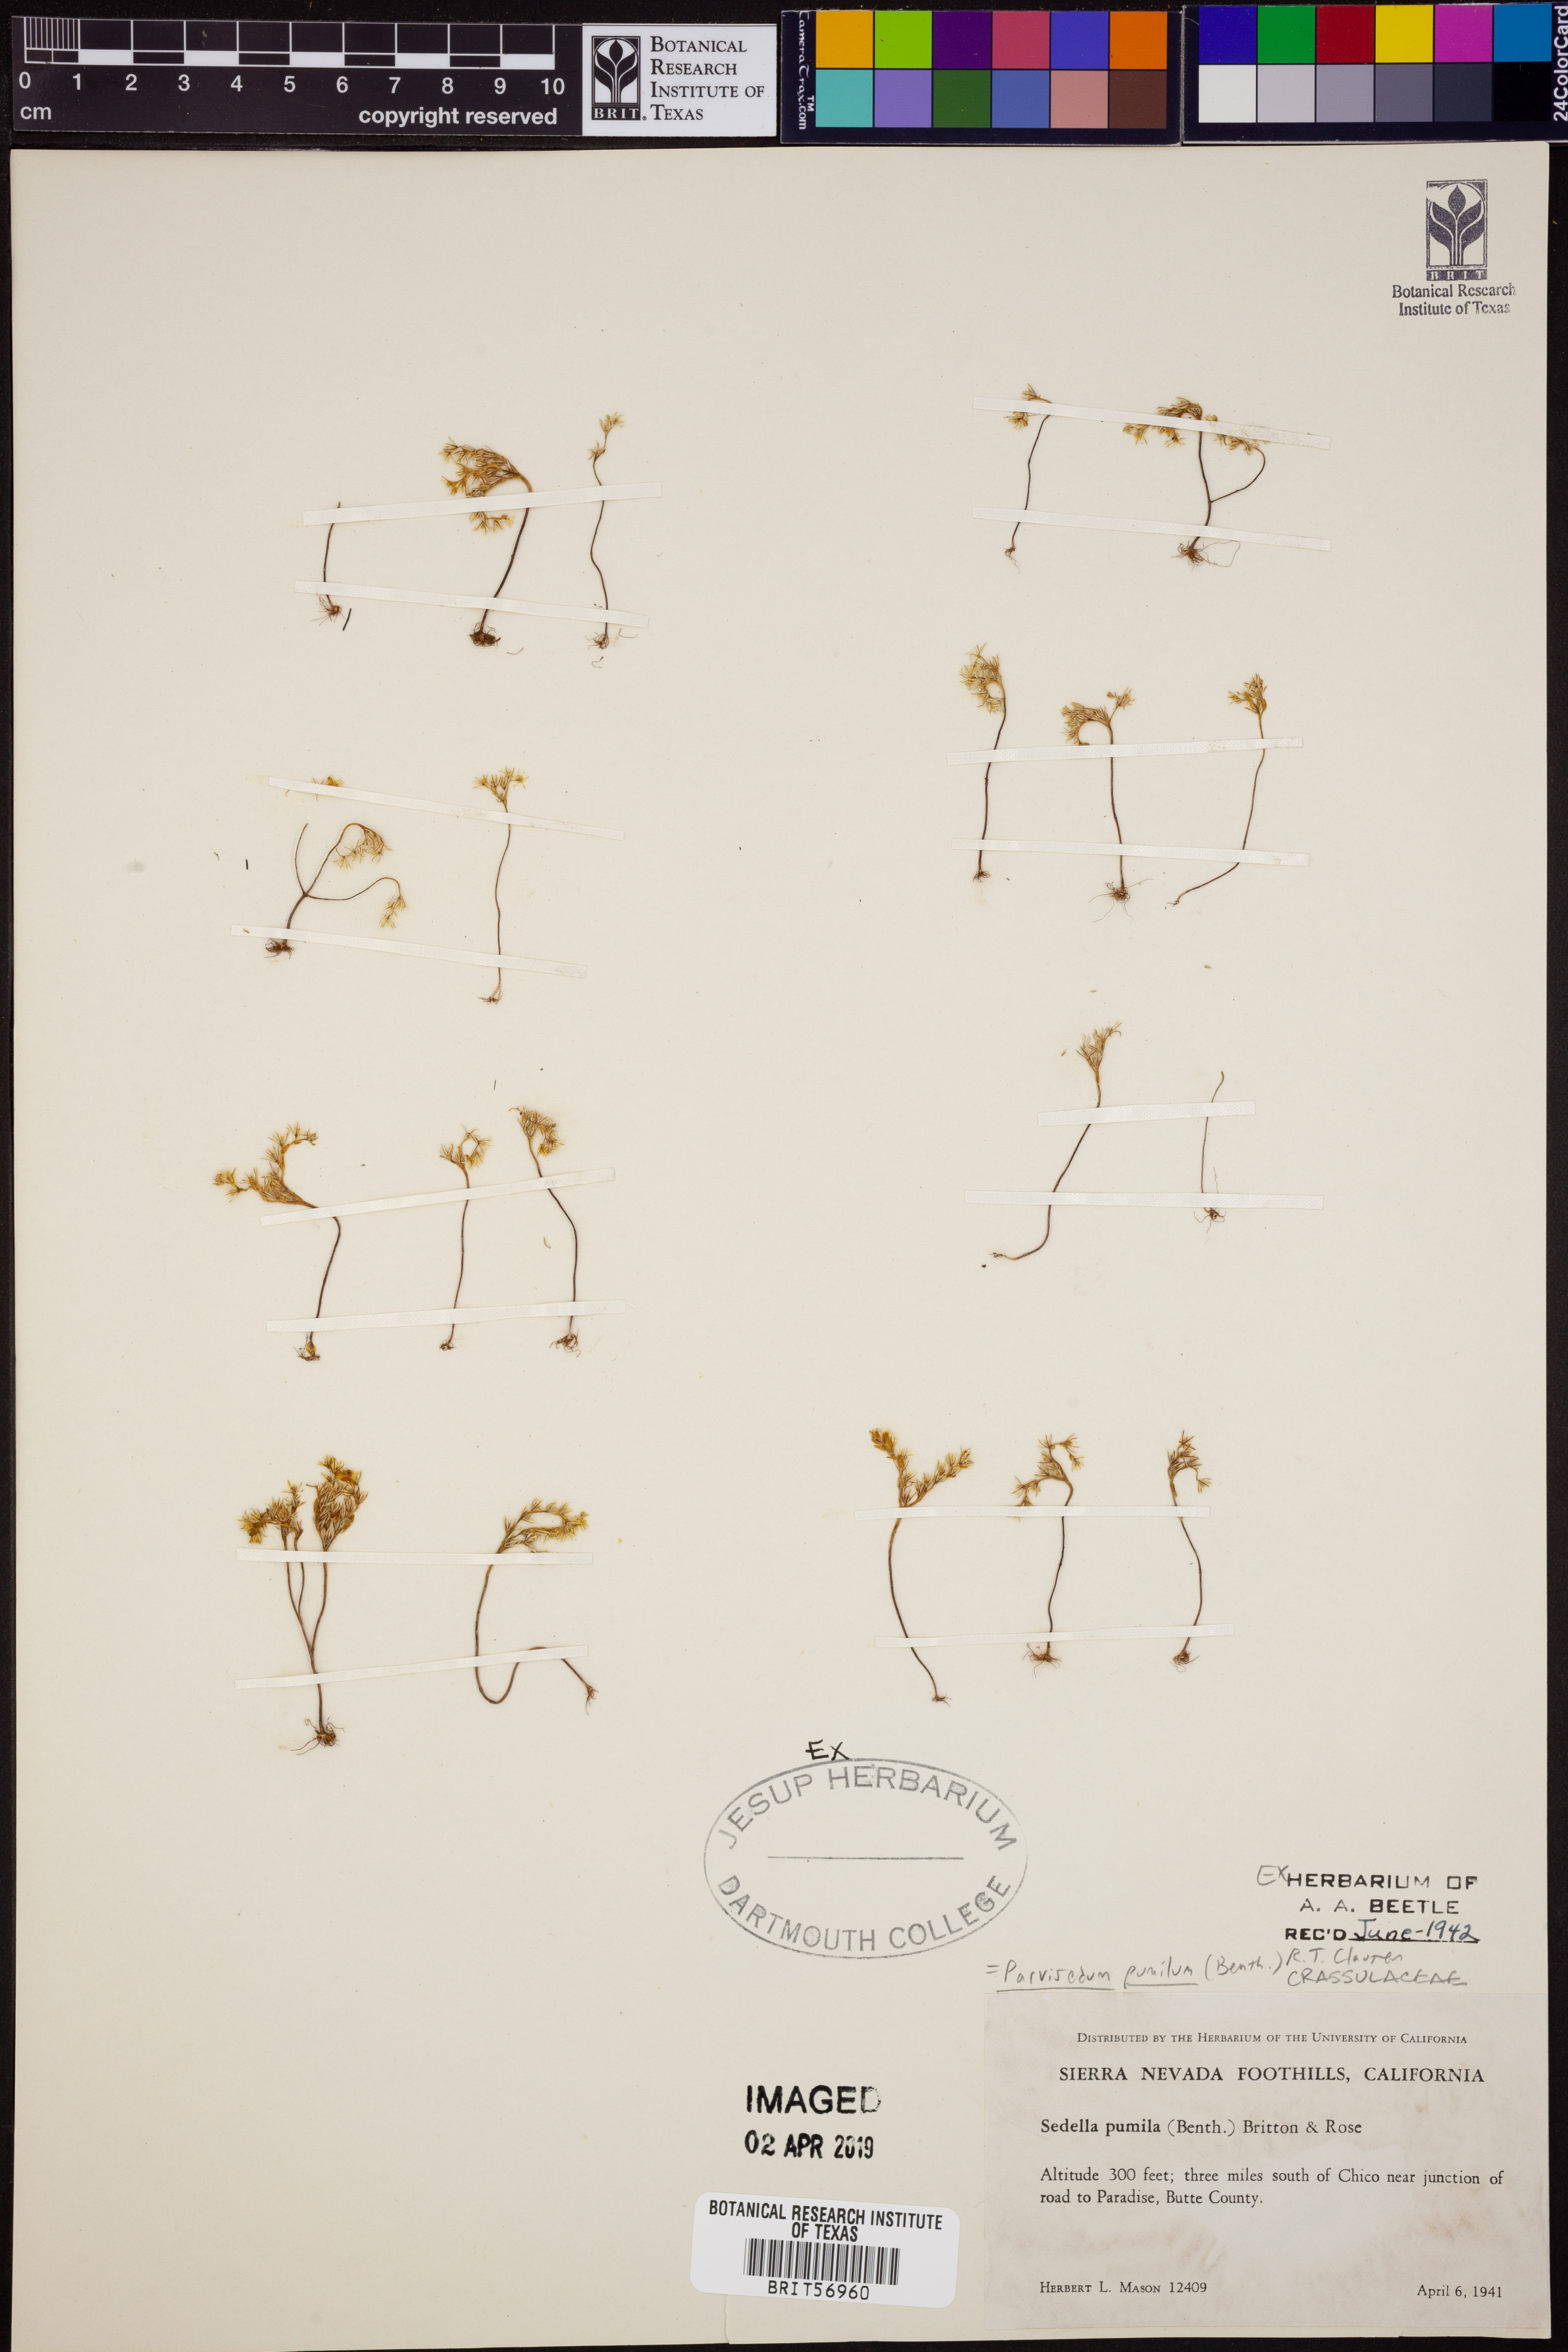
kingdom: Plantae
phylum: Tracheophyta
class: Magnoliopsida
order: Saxifragales
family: Crassulaceae
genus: Sedella
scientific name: Sedella pumila
